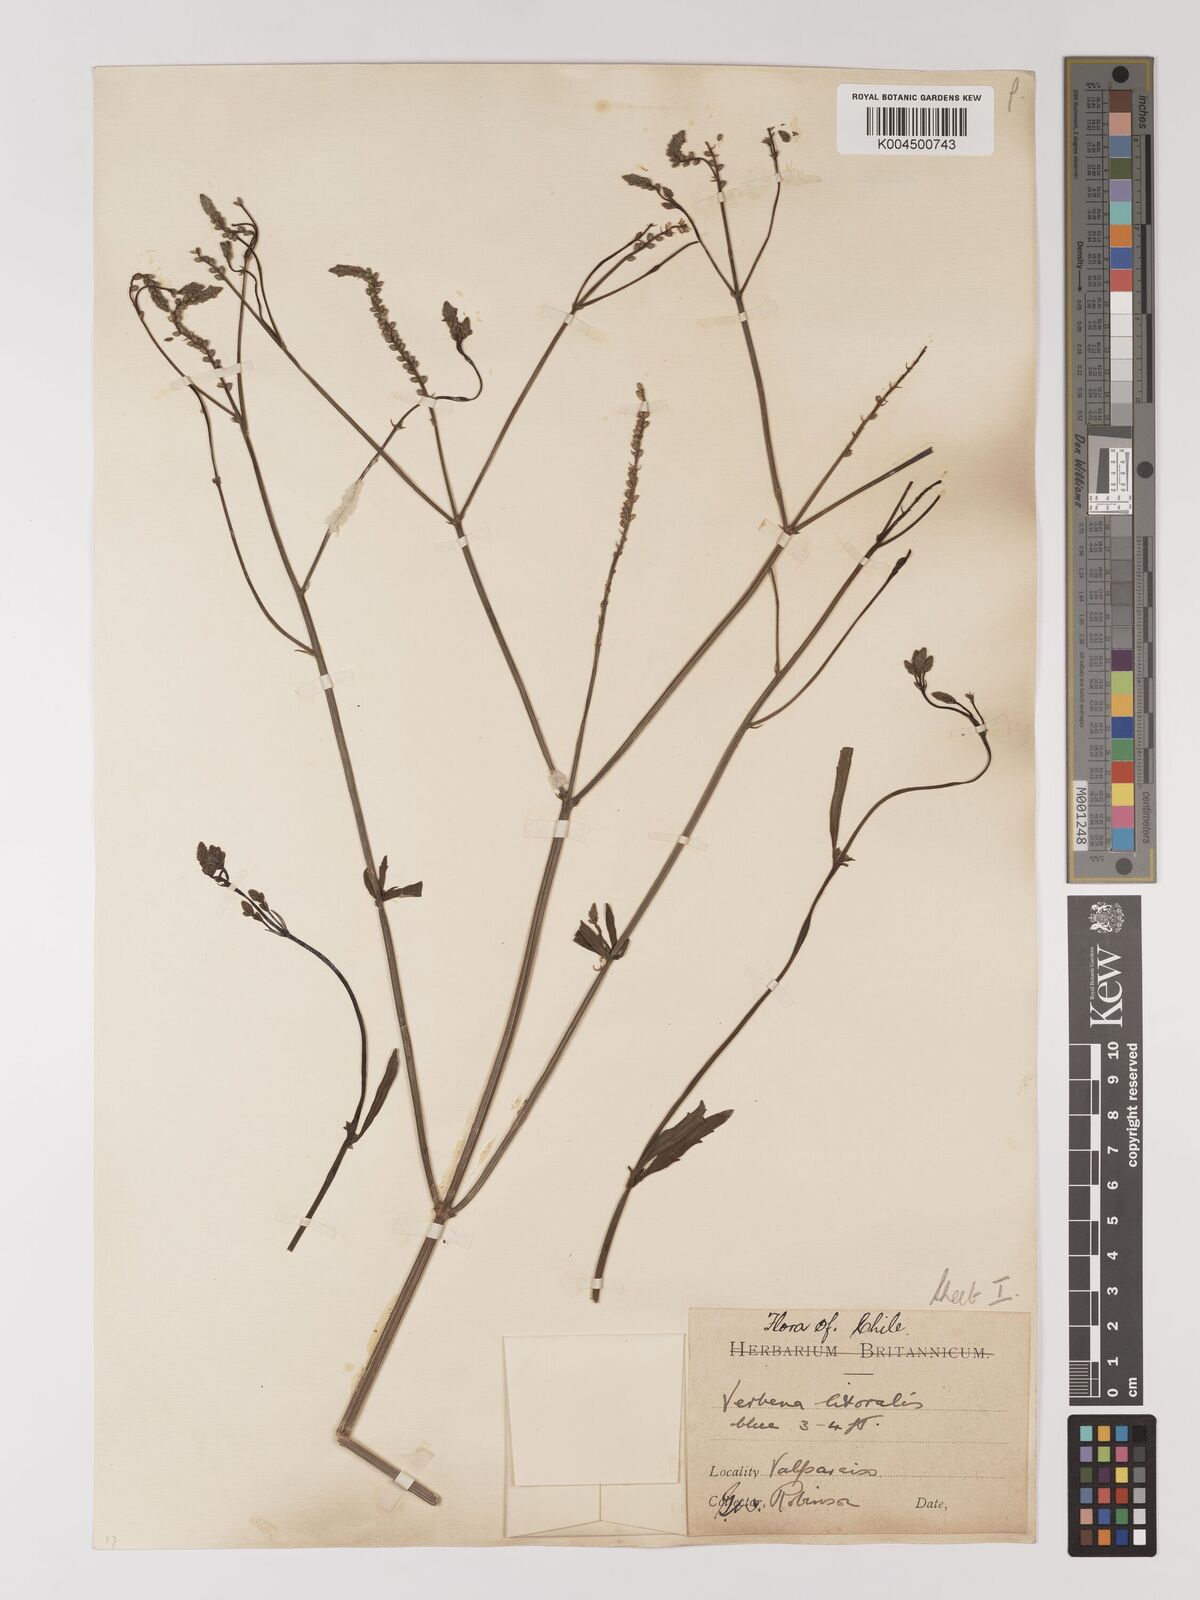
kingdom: Plantae
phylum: Tracheophyta
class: Magnoliopsida
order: Lamiales
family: Verbenaceae
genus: Verbena
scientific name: Verbena litoralis
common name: Seashore vervain
